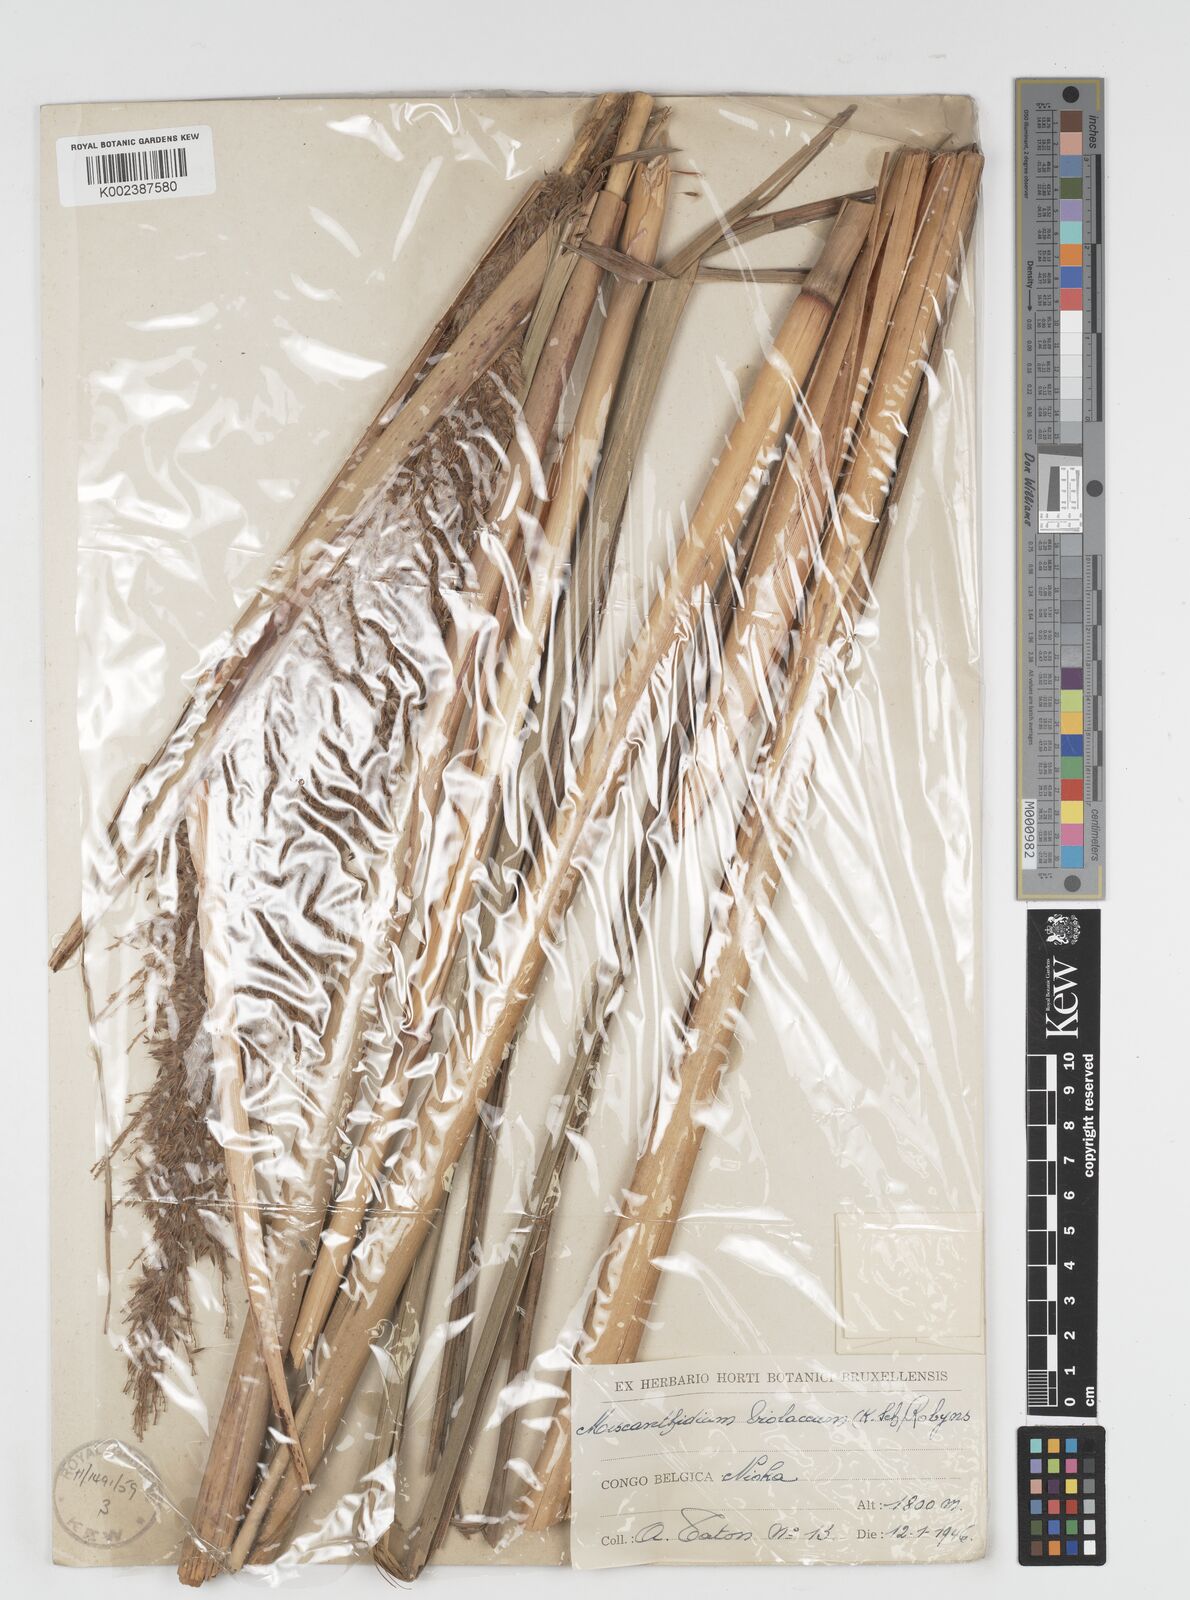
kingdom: Plantae
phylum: Tracheophyta
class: Liliopsida
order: Poales
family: Poaceae
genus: Miscanthidium
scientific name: Miscanthidium violaceum
